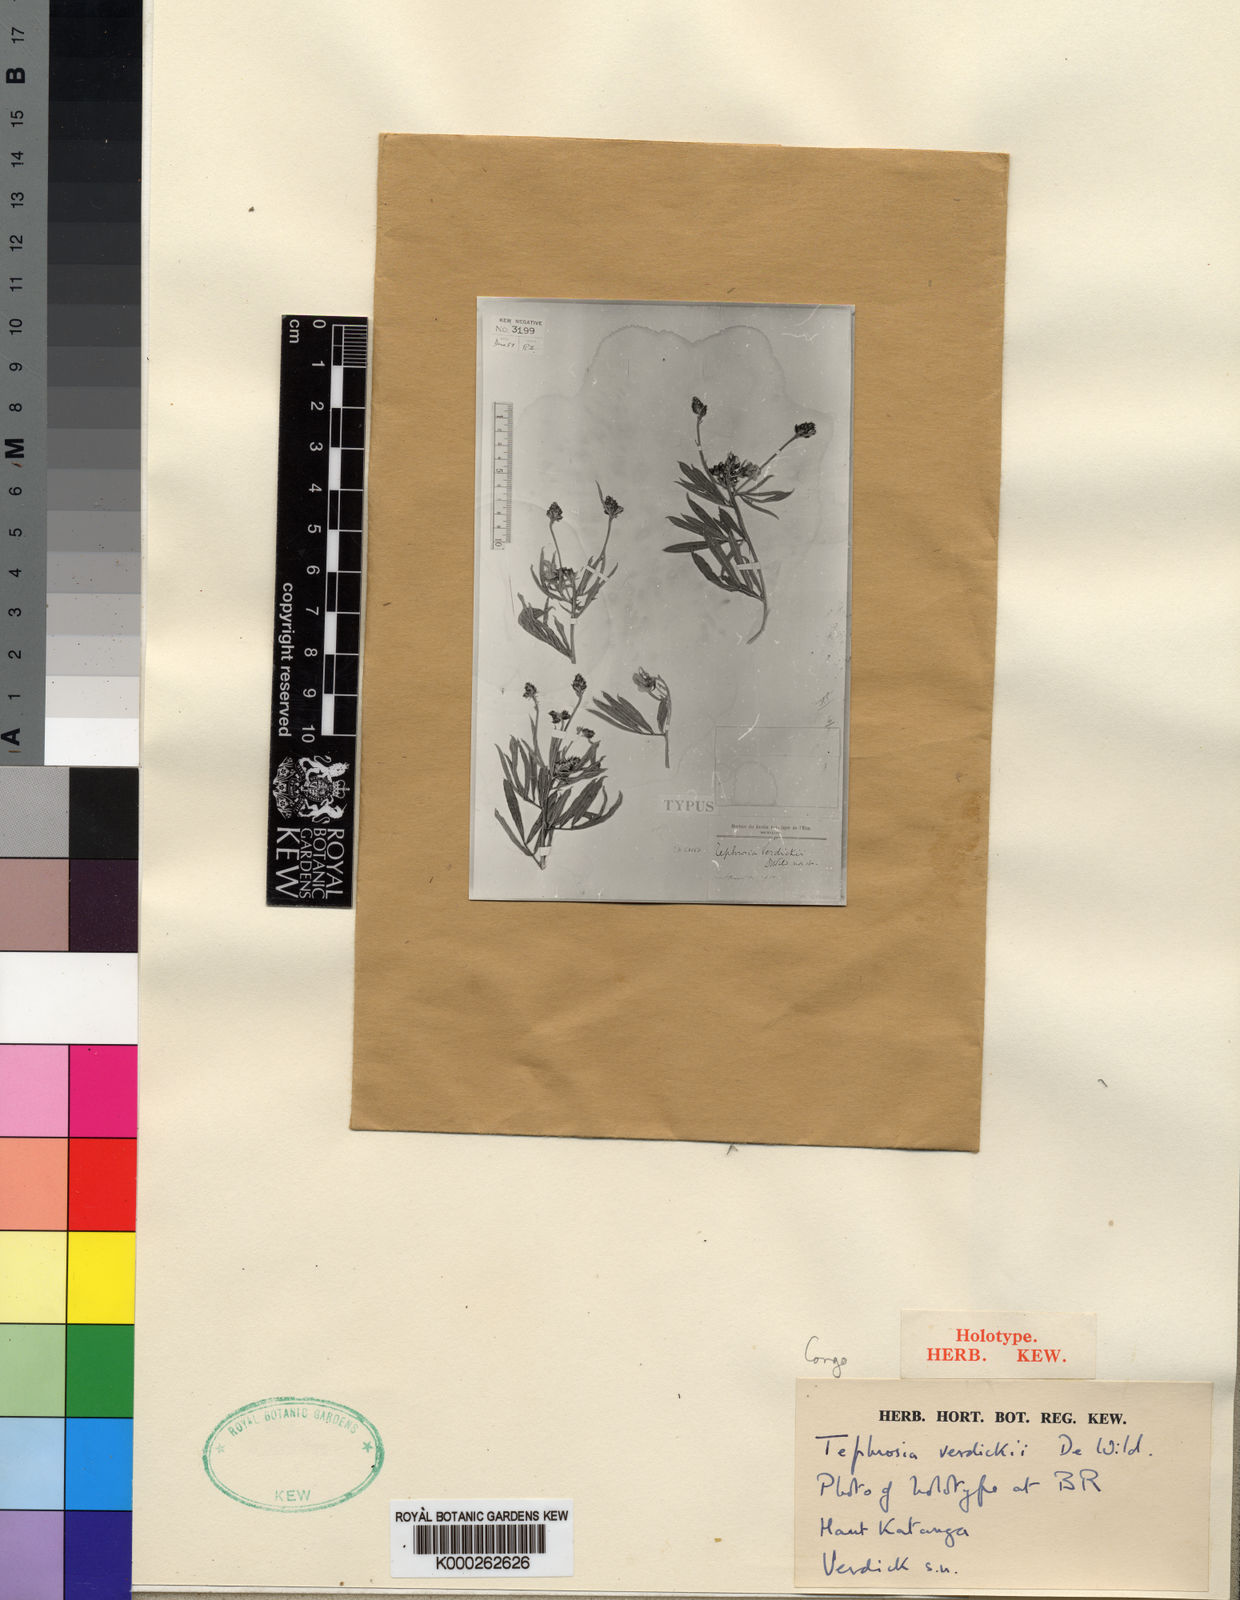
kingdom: Plantae
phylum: Tracheophyta
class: Magnoliopsida
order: Fabales
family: Fabaceae
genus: Tephrosia
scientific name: Tephrosia verdickii
